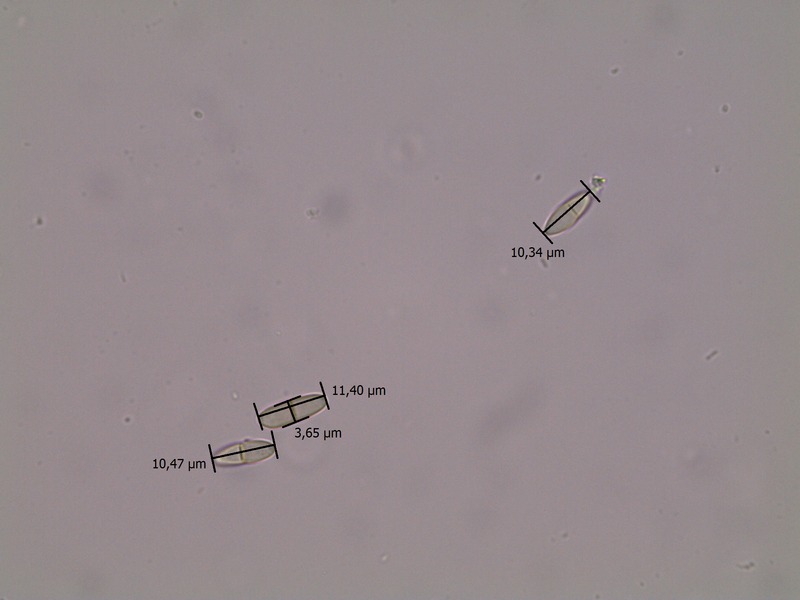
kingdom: Fungi
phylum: Ascomycota
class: Dothideomycetes
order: Pleosporales
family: Didymellaceae
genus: Ascochyta
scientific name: Ascochyta tenerrima
